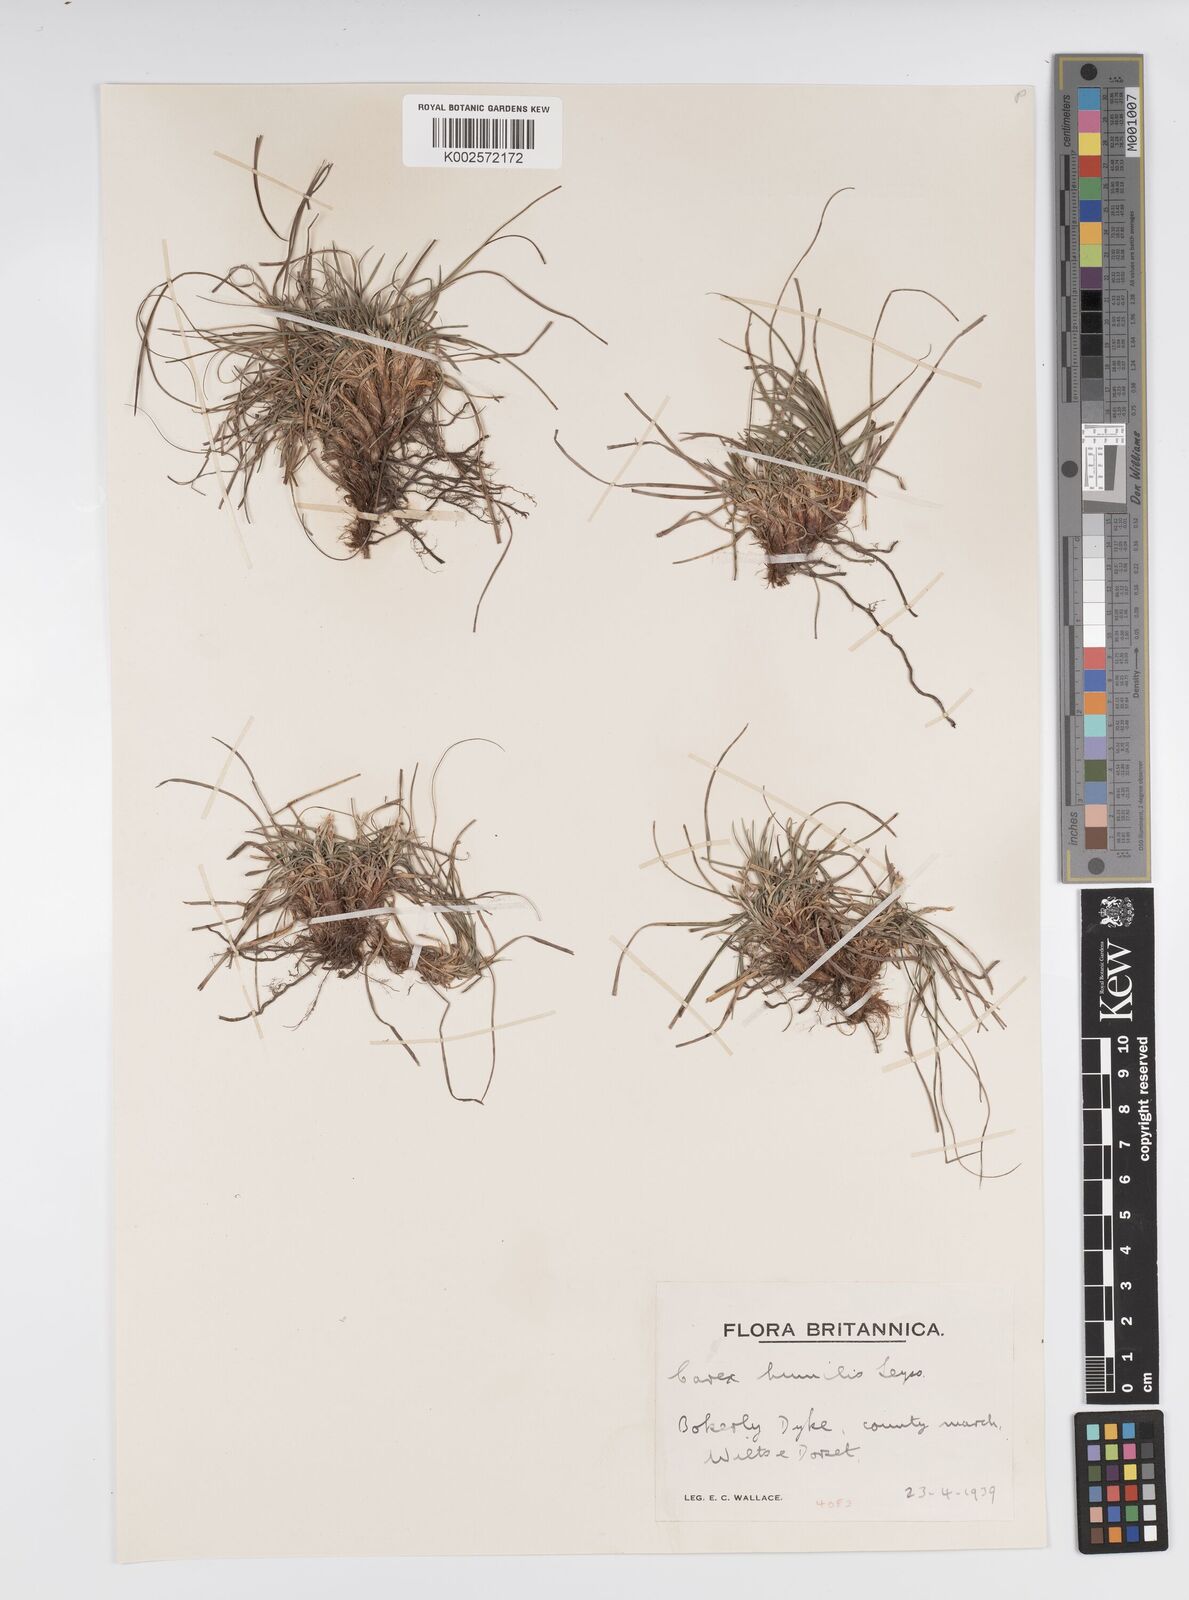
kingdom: Plantae
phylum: Tracheophyta
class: Liliopsida
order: Poales
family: Cyperaceae
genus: Carex
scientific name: Carex humilis
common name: Dwarf sedge
